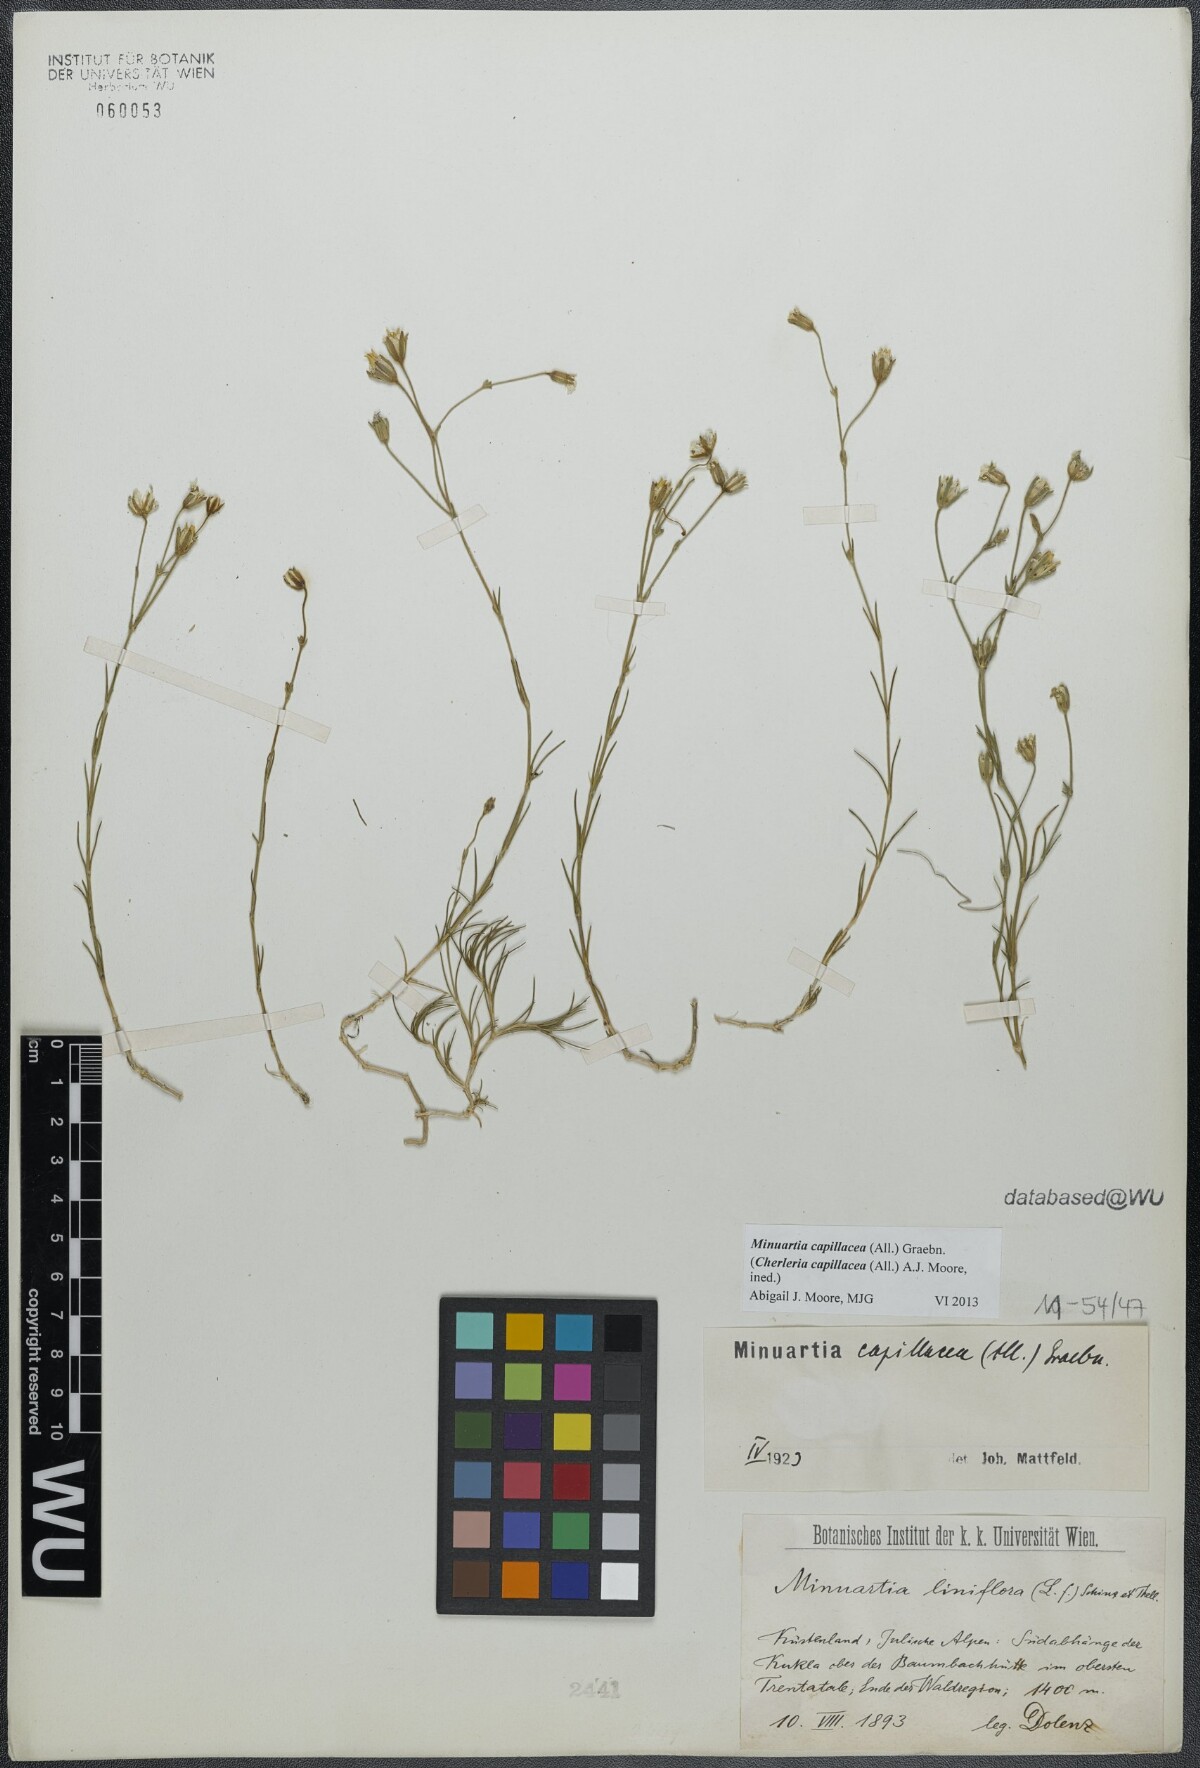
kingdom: Plantae
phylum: Tracheophyta
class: Magnoliopsida
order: Caryophyllales
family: Caryophyllaceae
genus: Cherleria
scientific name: Cherleria capillacea
